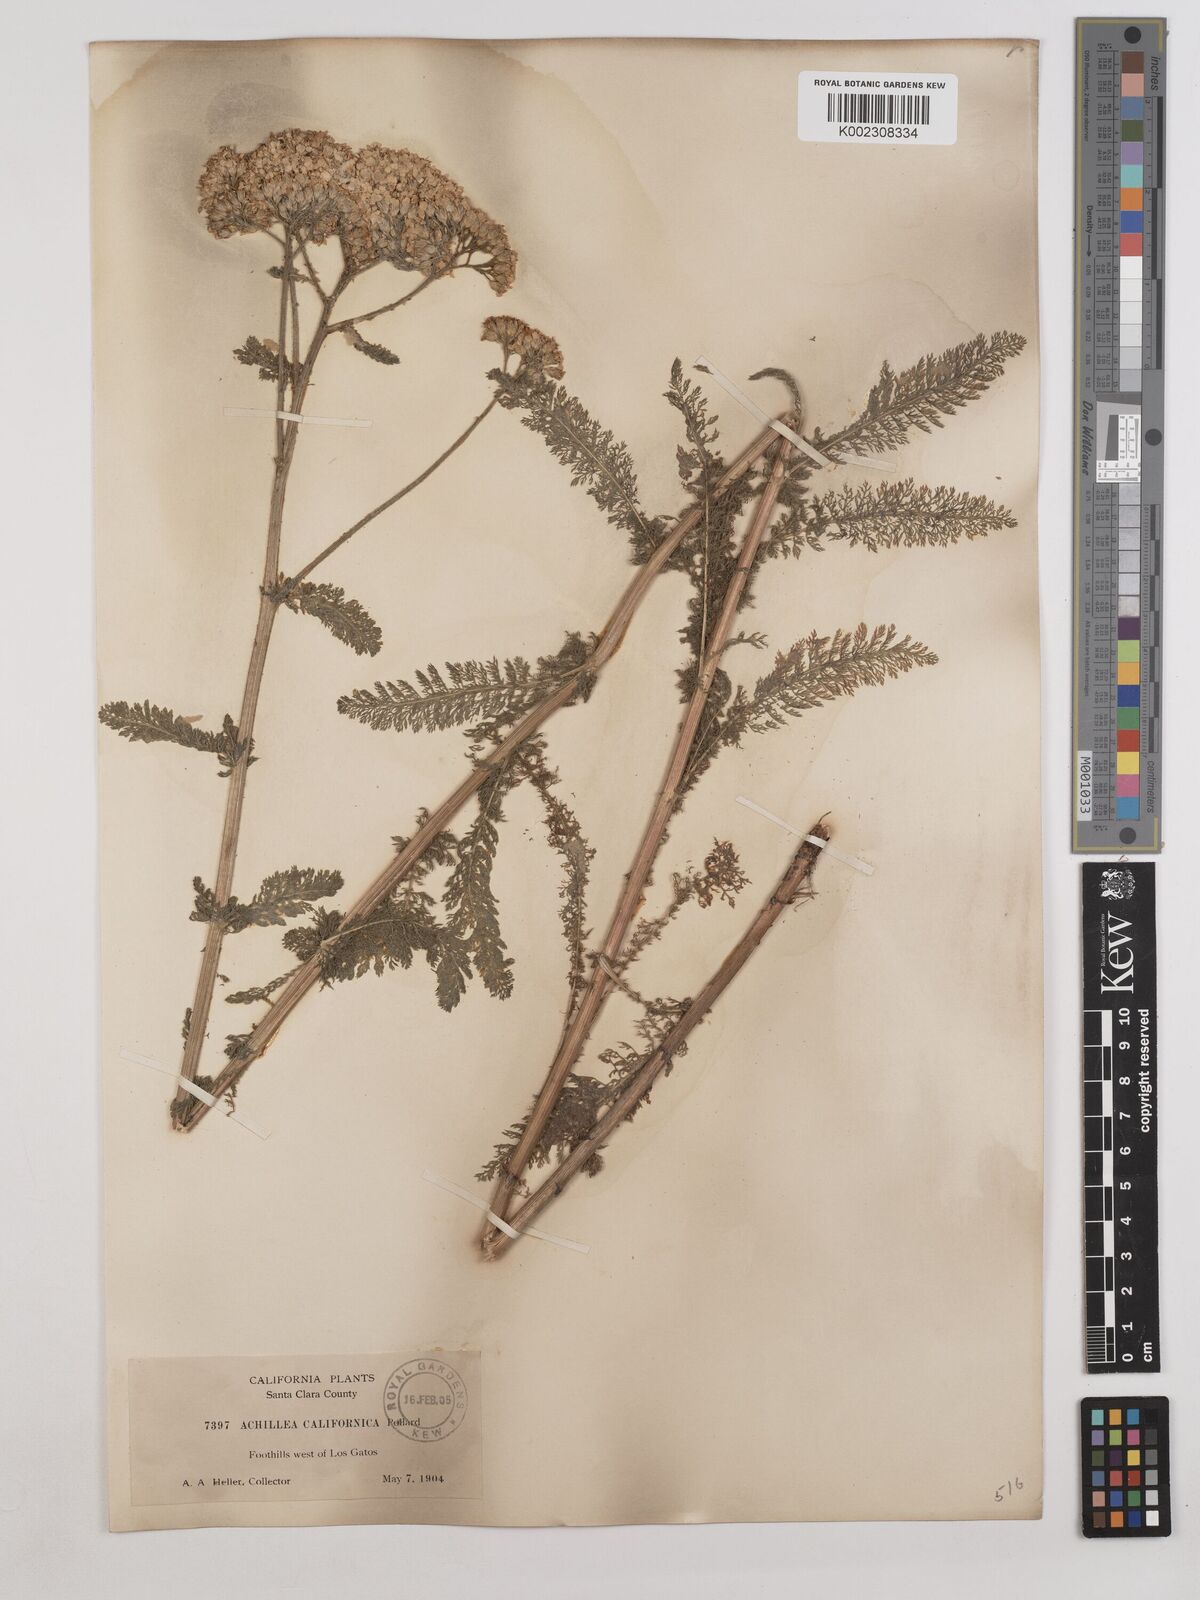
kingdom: Plantae
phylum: Tracheophyta
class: Magnoliopsida
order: Asterales
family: Asteraceae
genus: Achillea
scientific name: Achillea millefolium
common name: Yarrow
